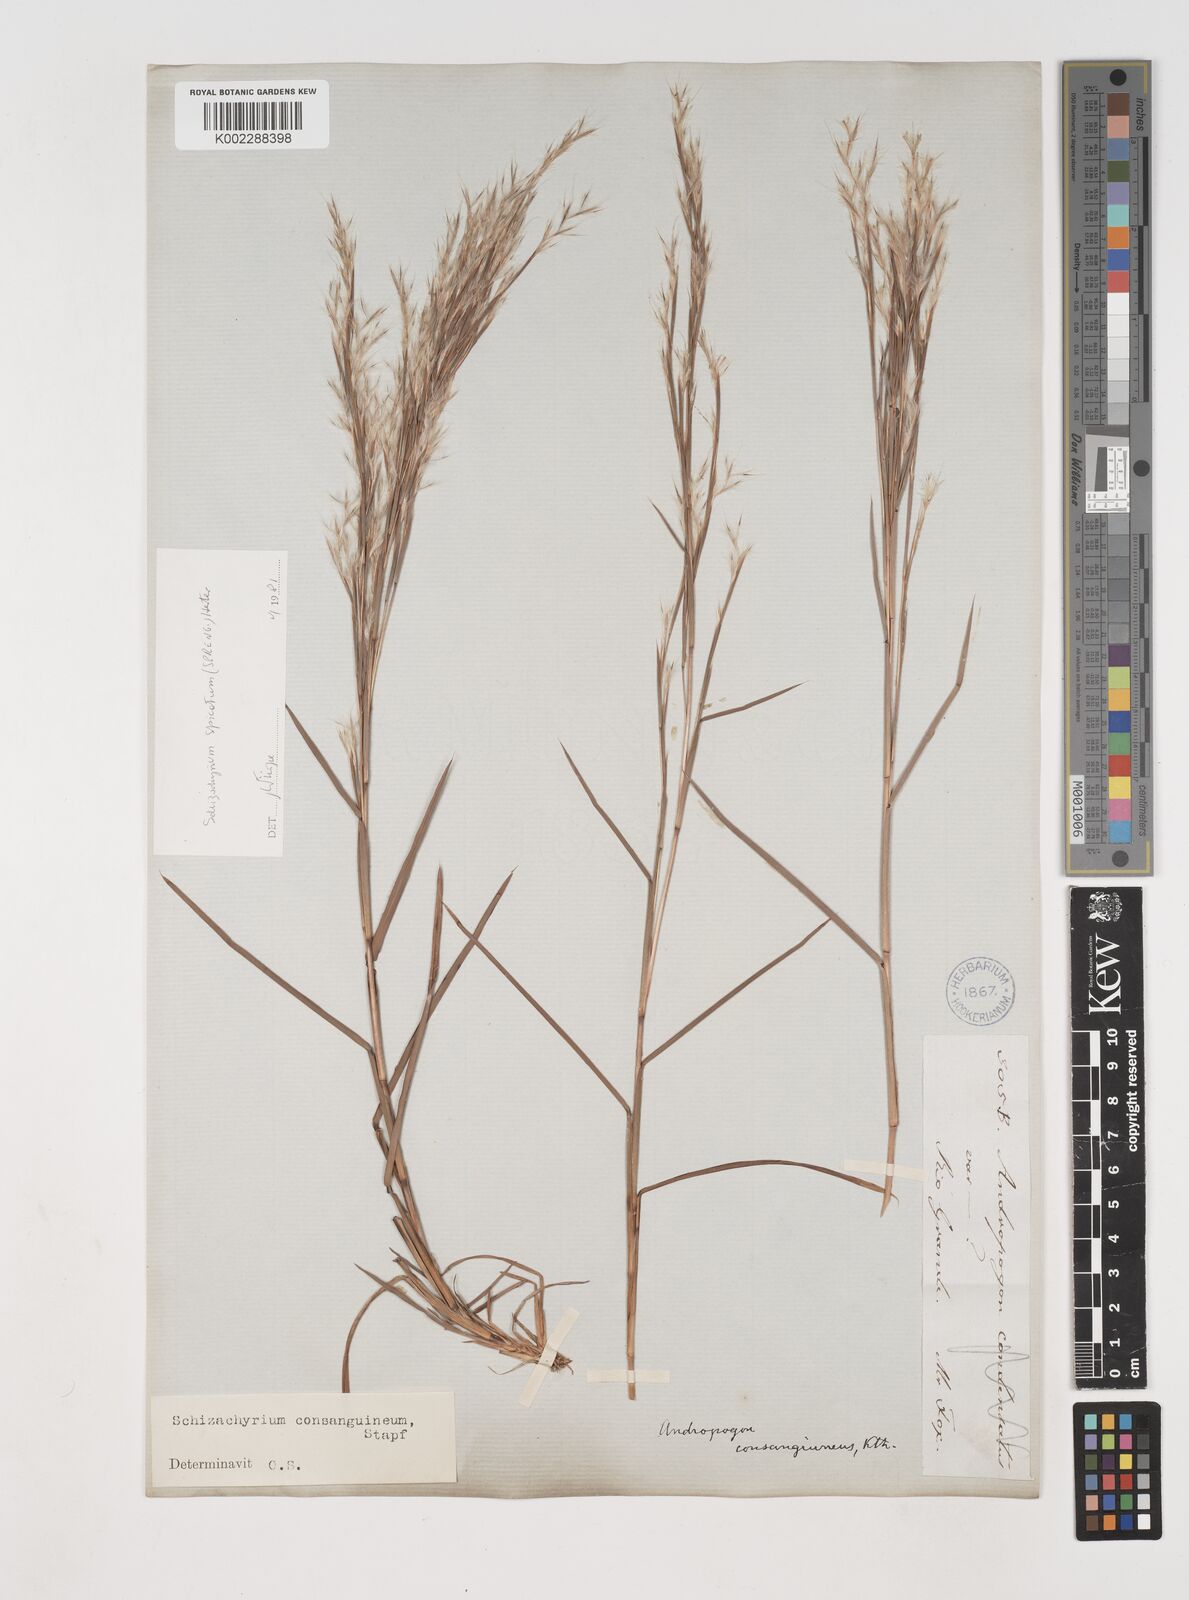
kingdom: Plantae
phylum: Tracheophyta
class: Liliopsida
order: Poales
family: Poaceae
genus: Schizachyrium
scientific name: Schizachyrium spicatum
